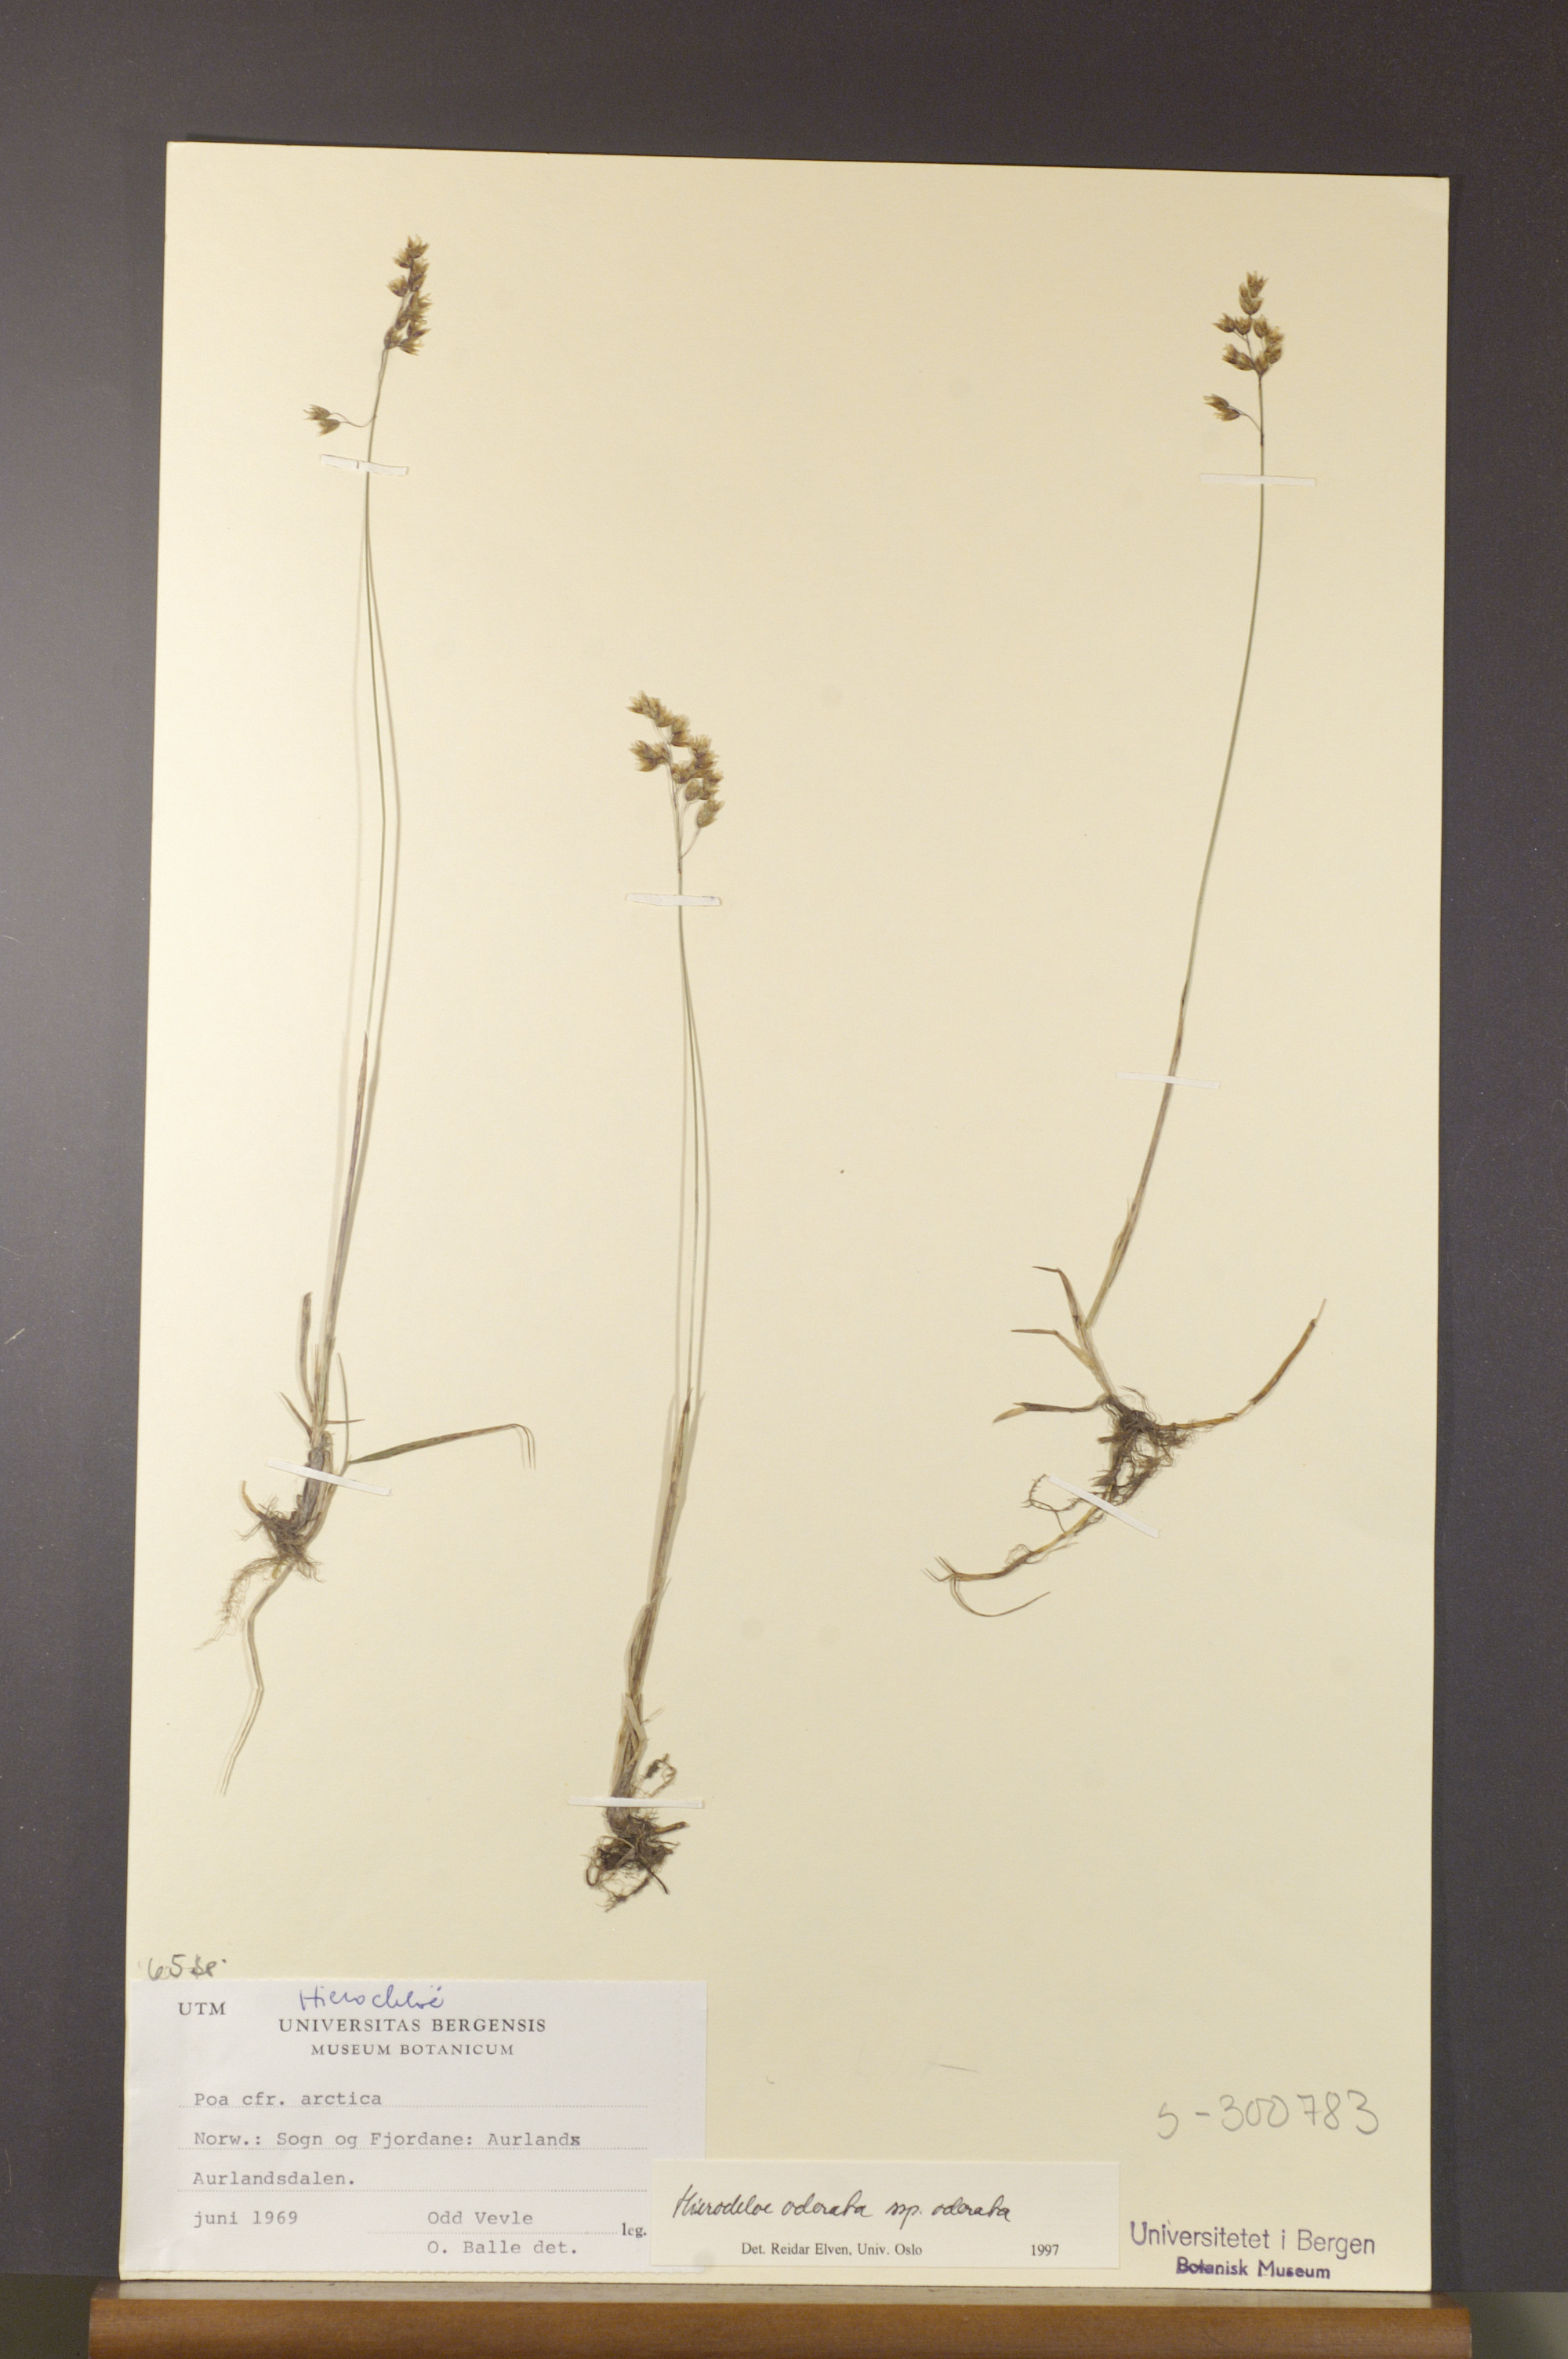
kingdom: Plantae
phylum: Tracheophyta
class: Liliopsida
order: Poales
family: Poaceae
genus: Anthoxanthum
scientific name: Anthoxanthum nitens
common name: Holy grass
